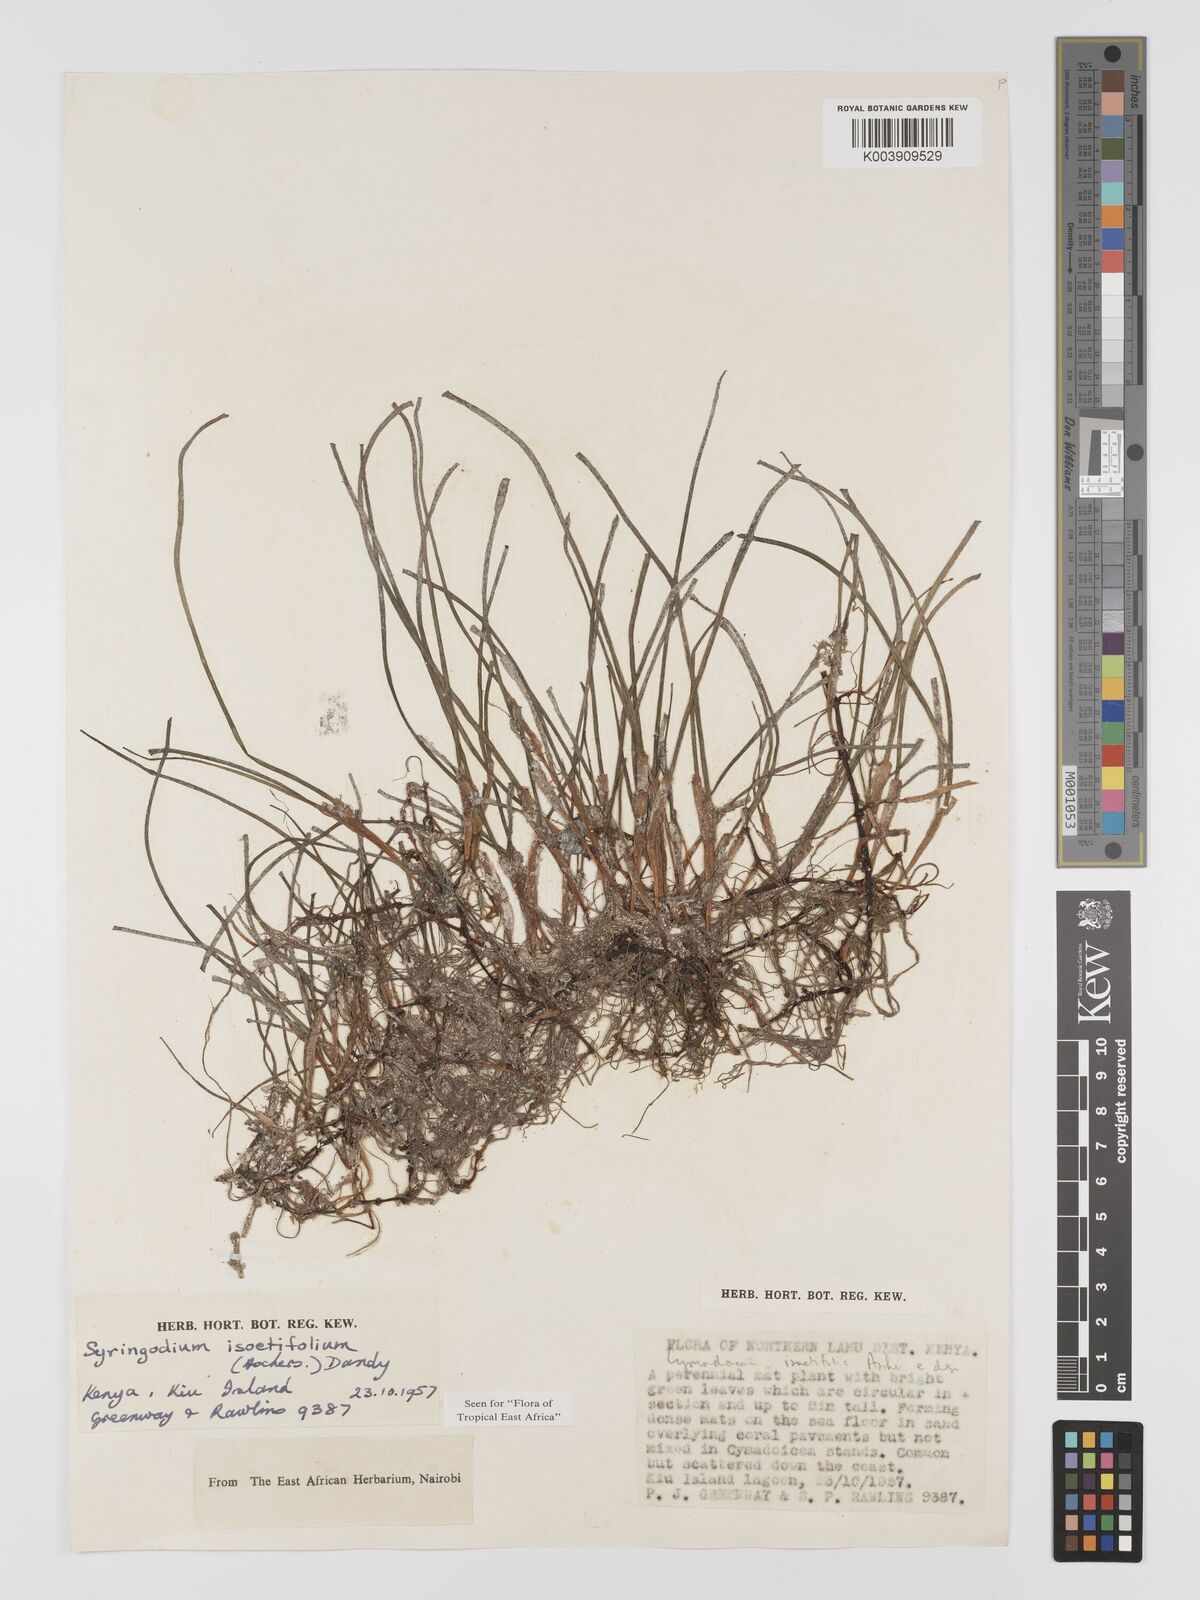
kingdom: Plantae
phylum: Tracheophyta
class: Liliopsida
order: Alismatales
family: Cymodoceaceae
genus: Syringodium
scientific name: Syringodium isoetifolium
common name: Species code: si
